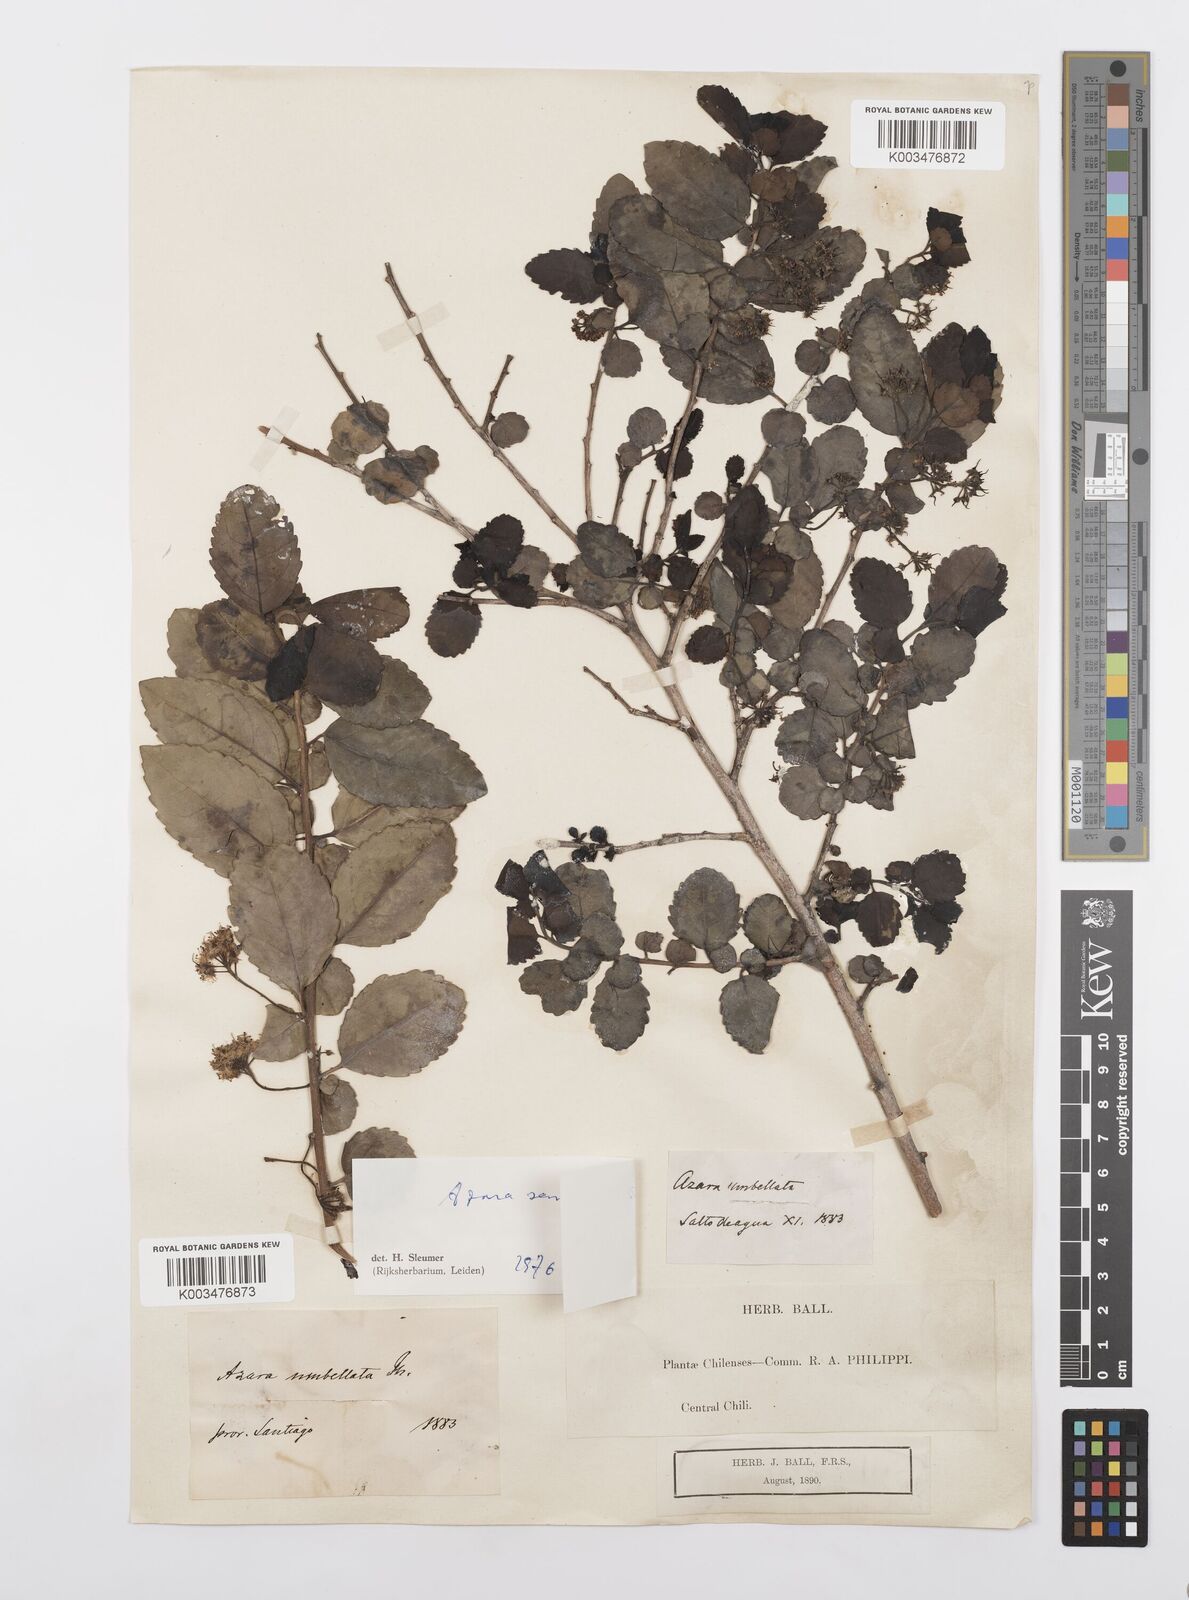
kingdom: Plantae
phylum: Tracheophyta
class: Magnoliopsida
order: Malpighiales
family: Salicaceae
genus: Azara
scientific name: Azara serrata
